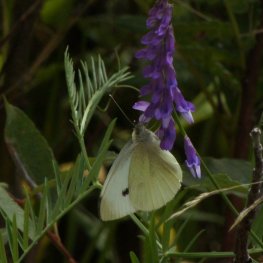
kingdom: Animalia
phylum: Arthropoda
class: Insecta
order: Lepidoptera
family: Pieridae
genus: Pieris
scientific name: Pieris rapae
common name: Cabbage White
